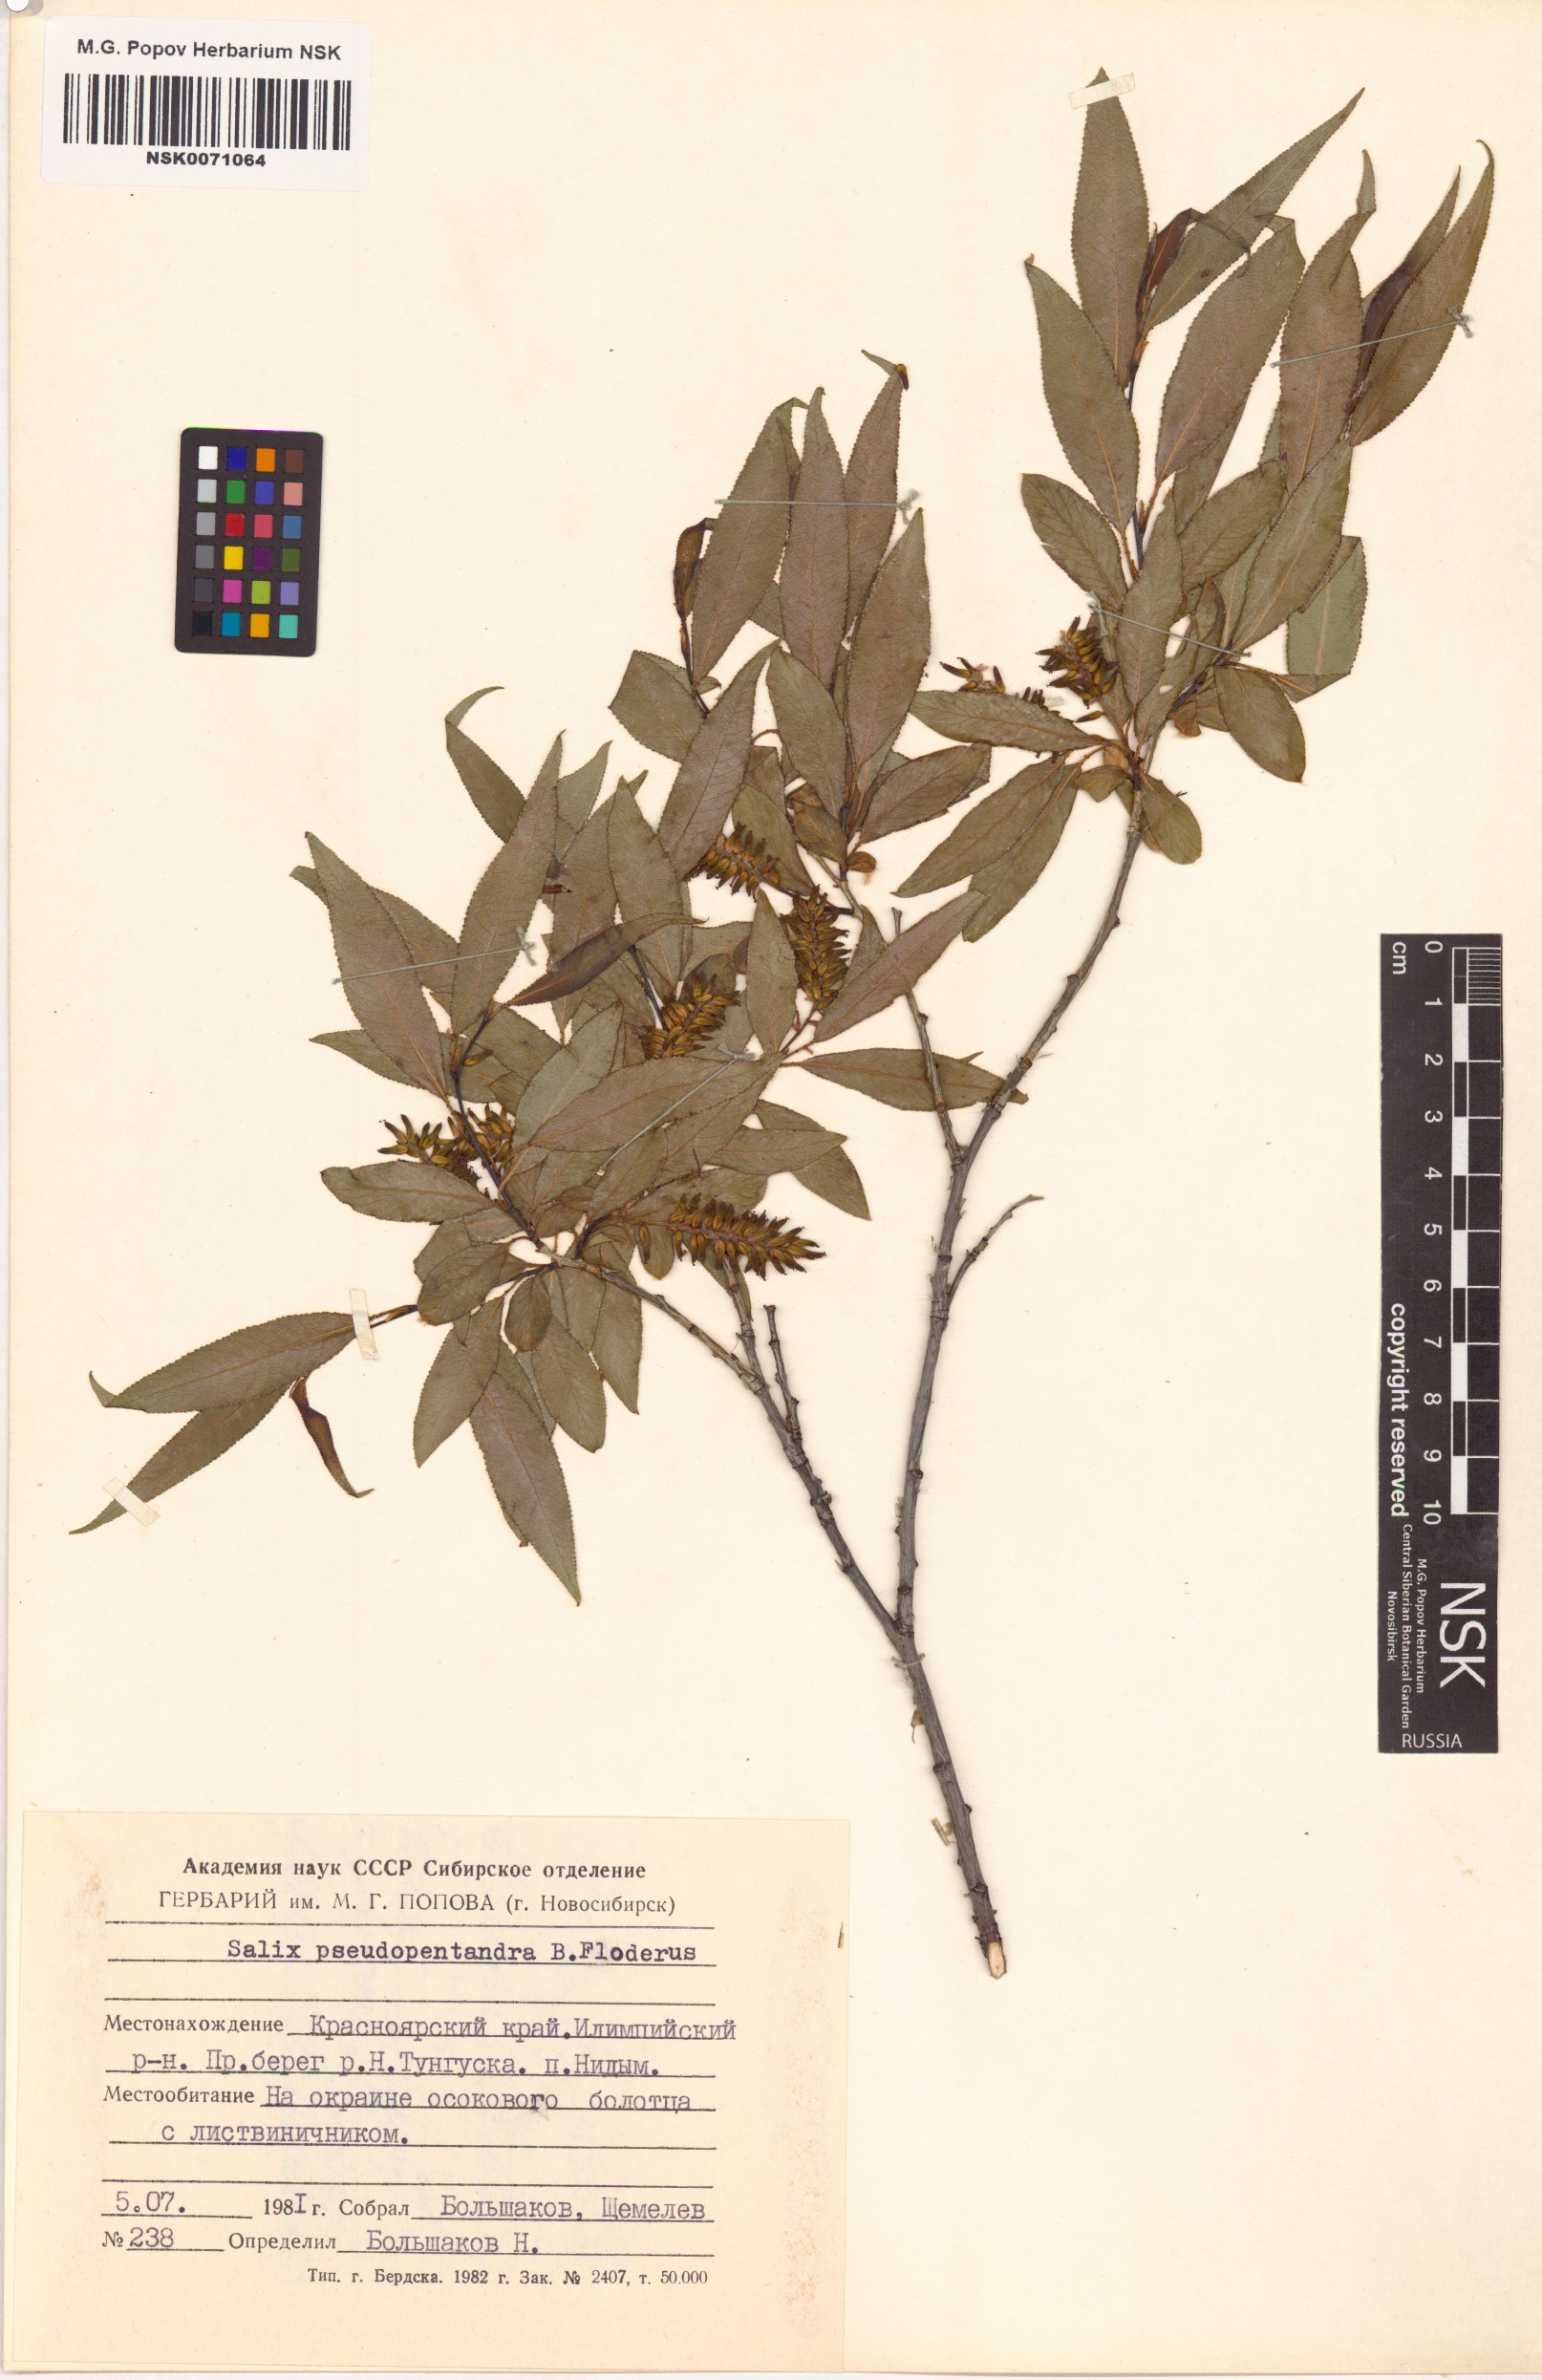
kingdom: Plantae
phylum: Tracheophyta
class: Magnoliopsida
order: Malpighiales
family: Salicaceae
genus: Salix
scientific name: Salix pseudopentandra
